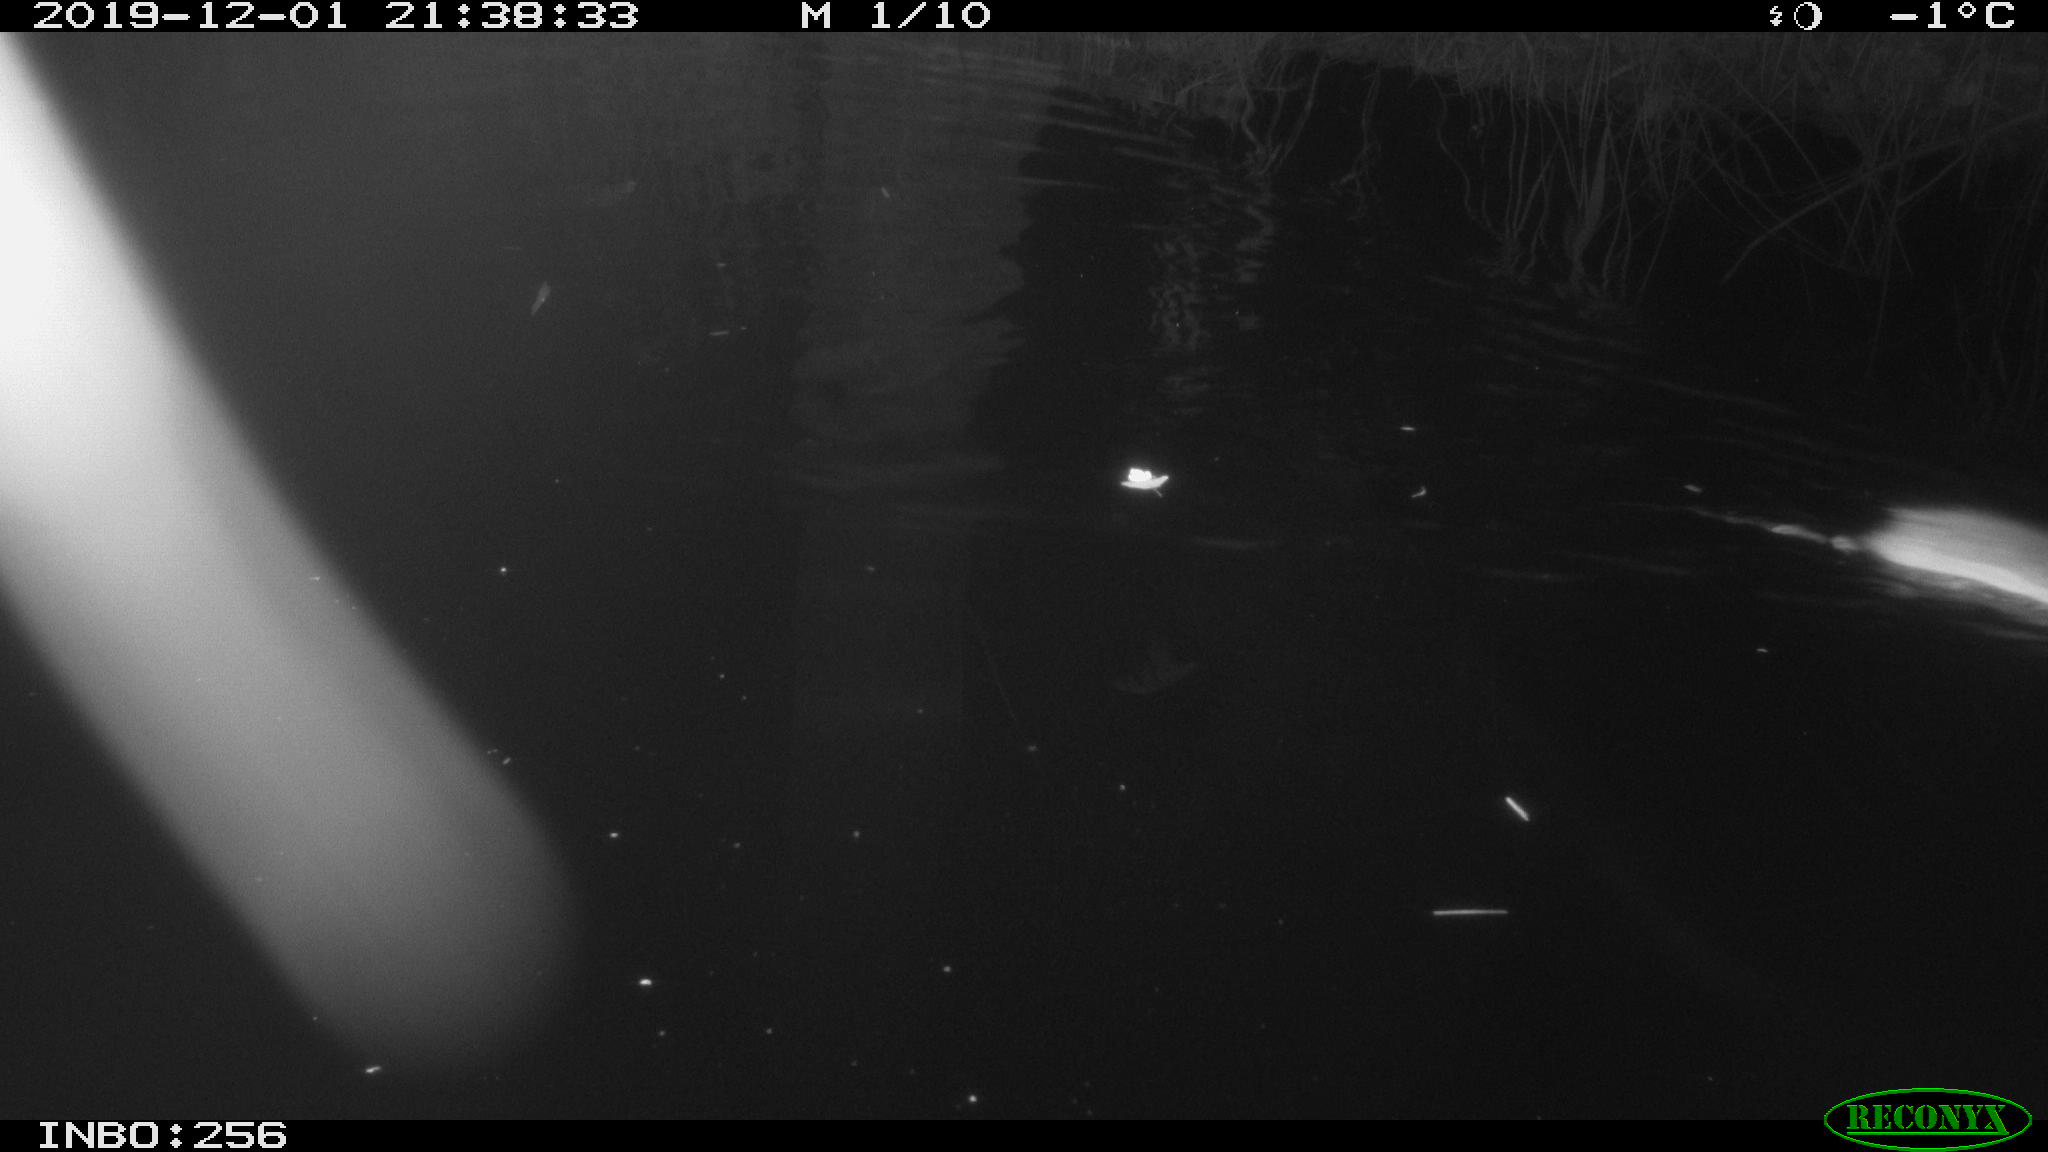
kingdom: Animalia
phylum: Chordata
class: Aves
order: Anseriformes
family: Anatidae
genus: Anas
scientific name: Anas platyrhynchos
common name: Mallard
